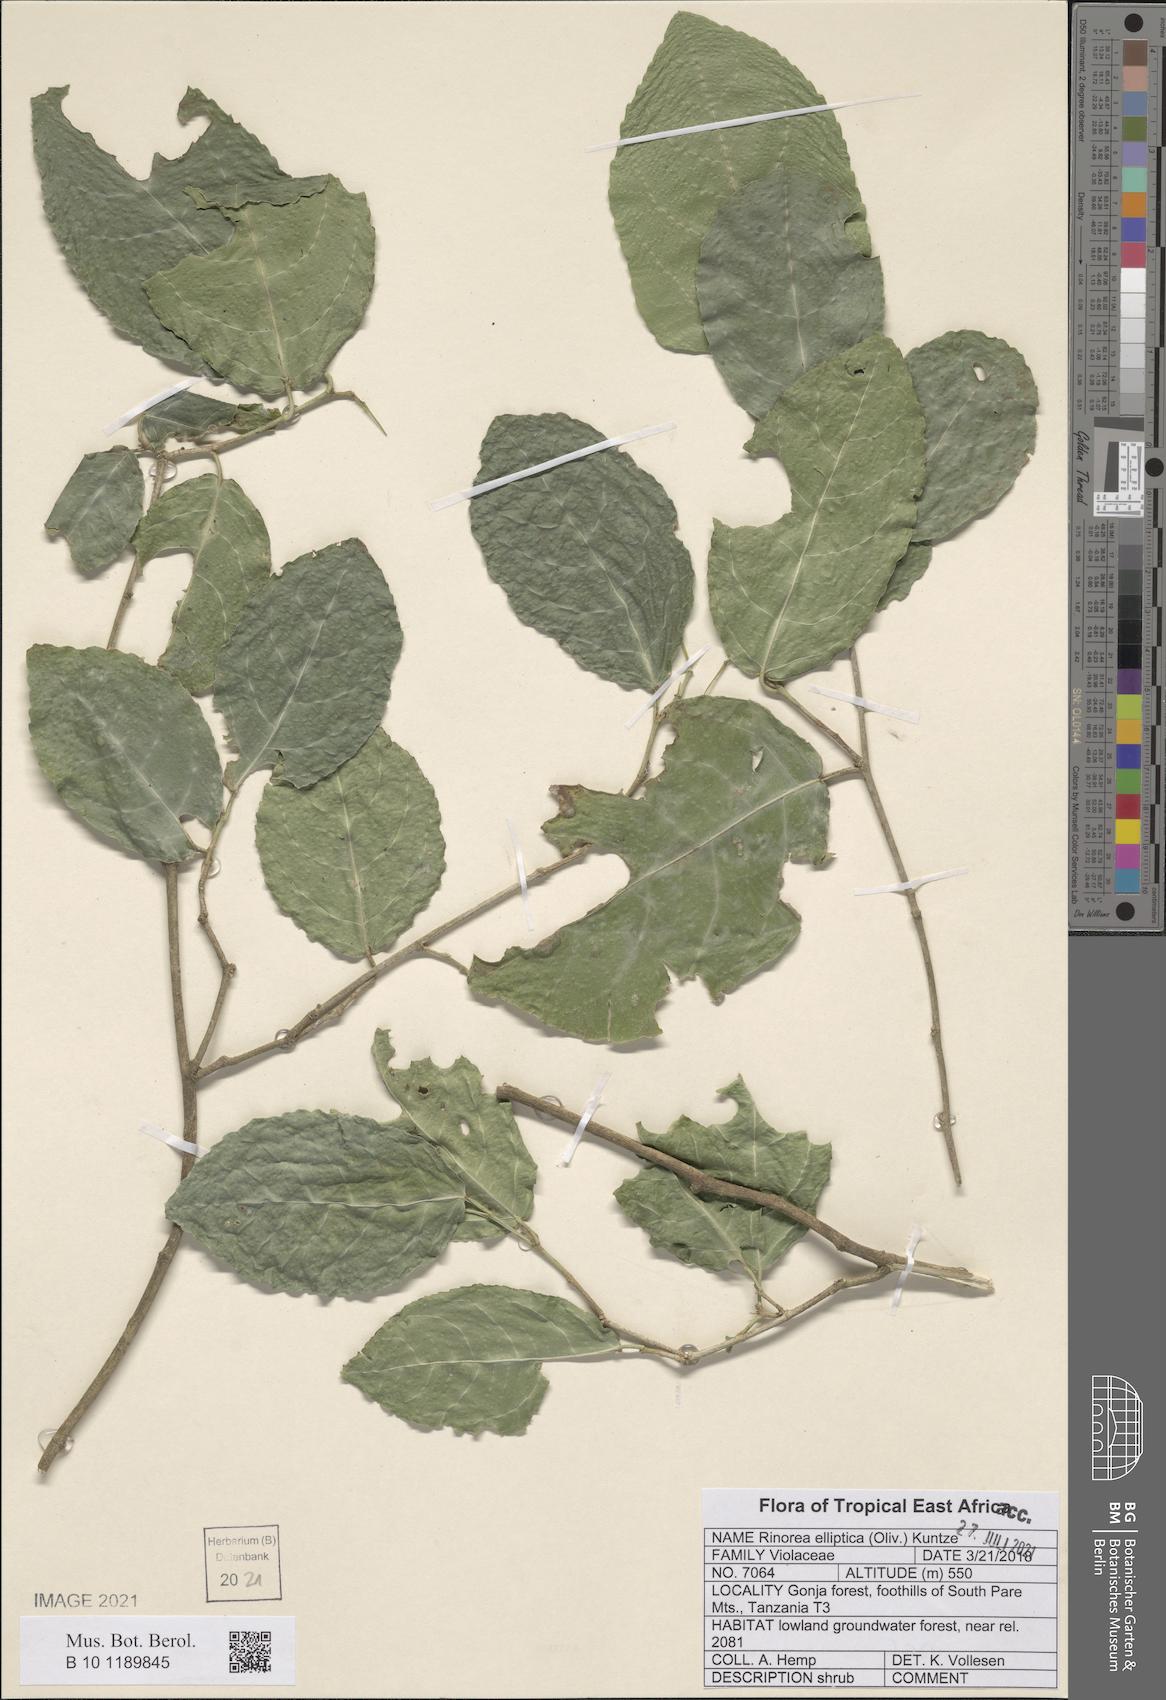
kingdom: Plantae
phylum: Tracheophyta
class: Magnoliopsida
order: Malpighiales
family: Violaceae
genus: Rinorea
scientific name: Rinorea elliptica
